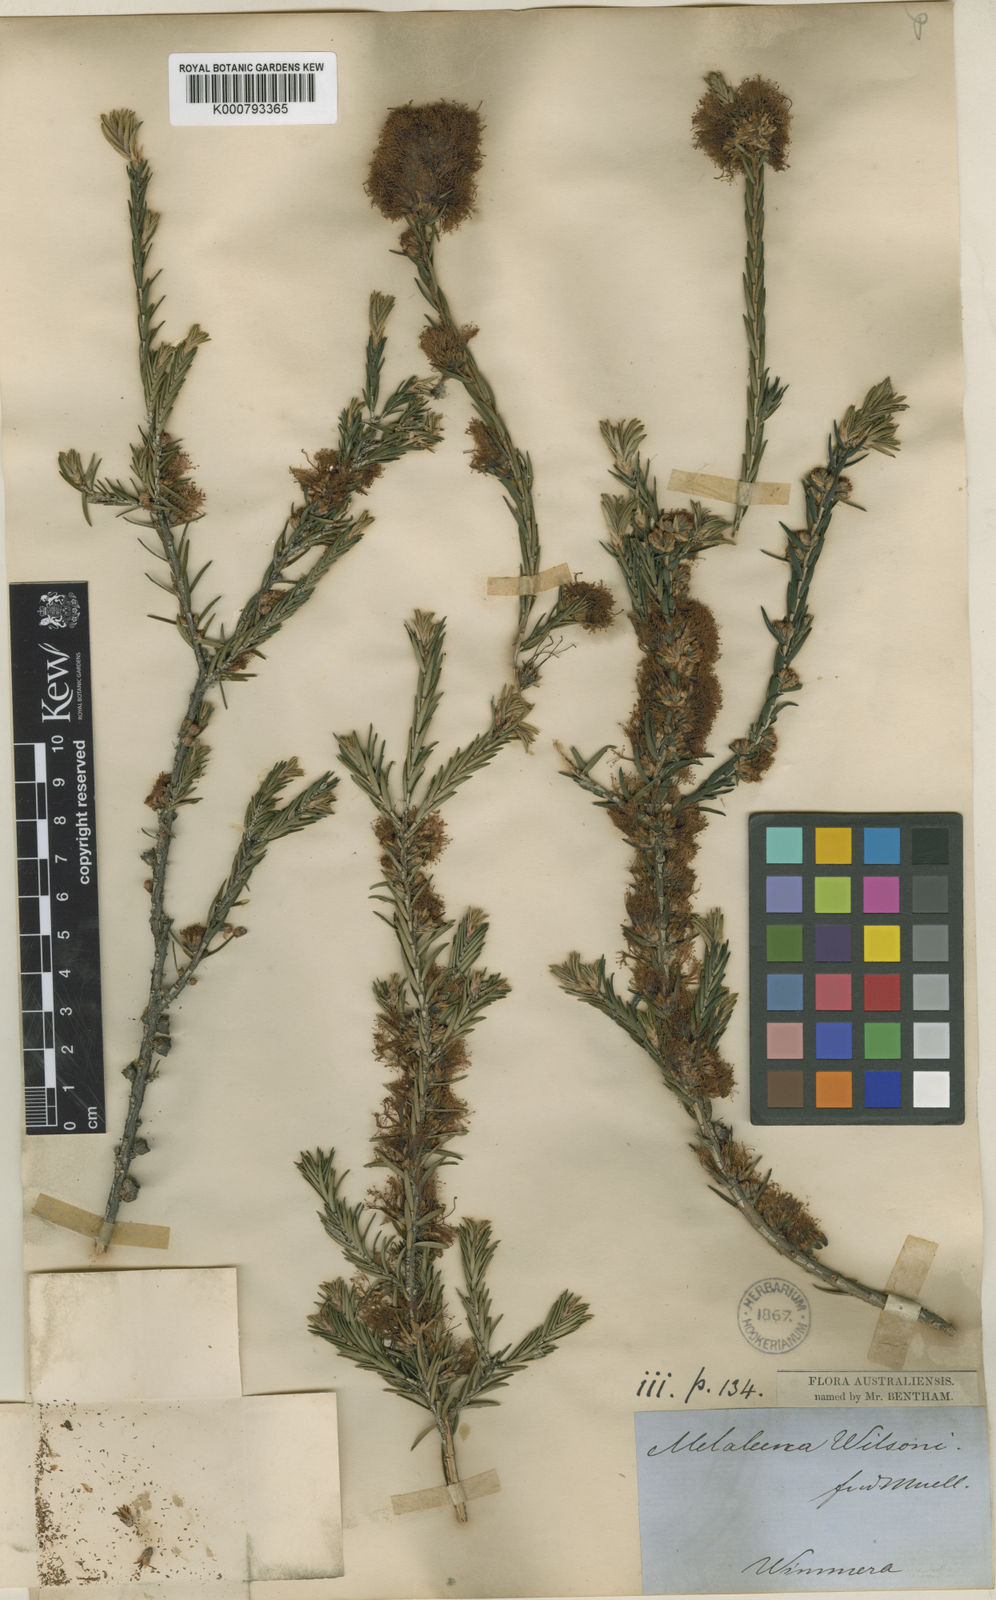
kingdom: Plantae
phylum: Tracheophyta
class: Magnoliopsida
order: Myrtales
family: Myrtaceae
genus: Melaleuca
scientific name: Melaleuca wilsonii
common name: Violet honey myrtle
